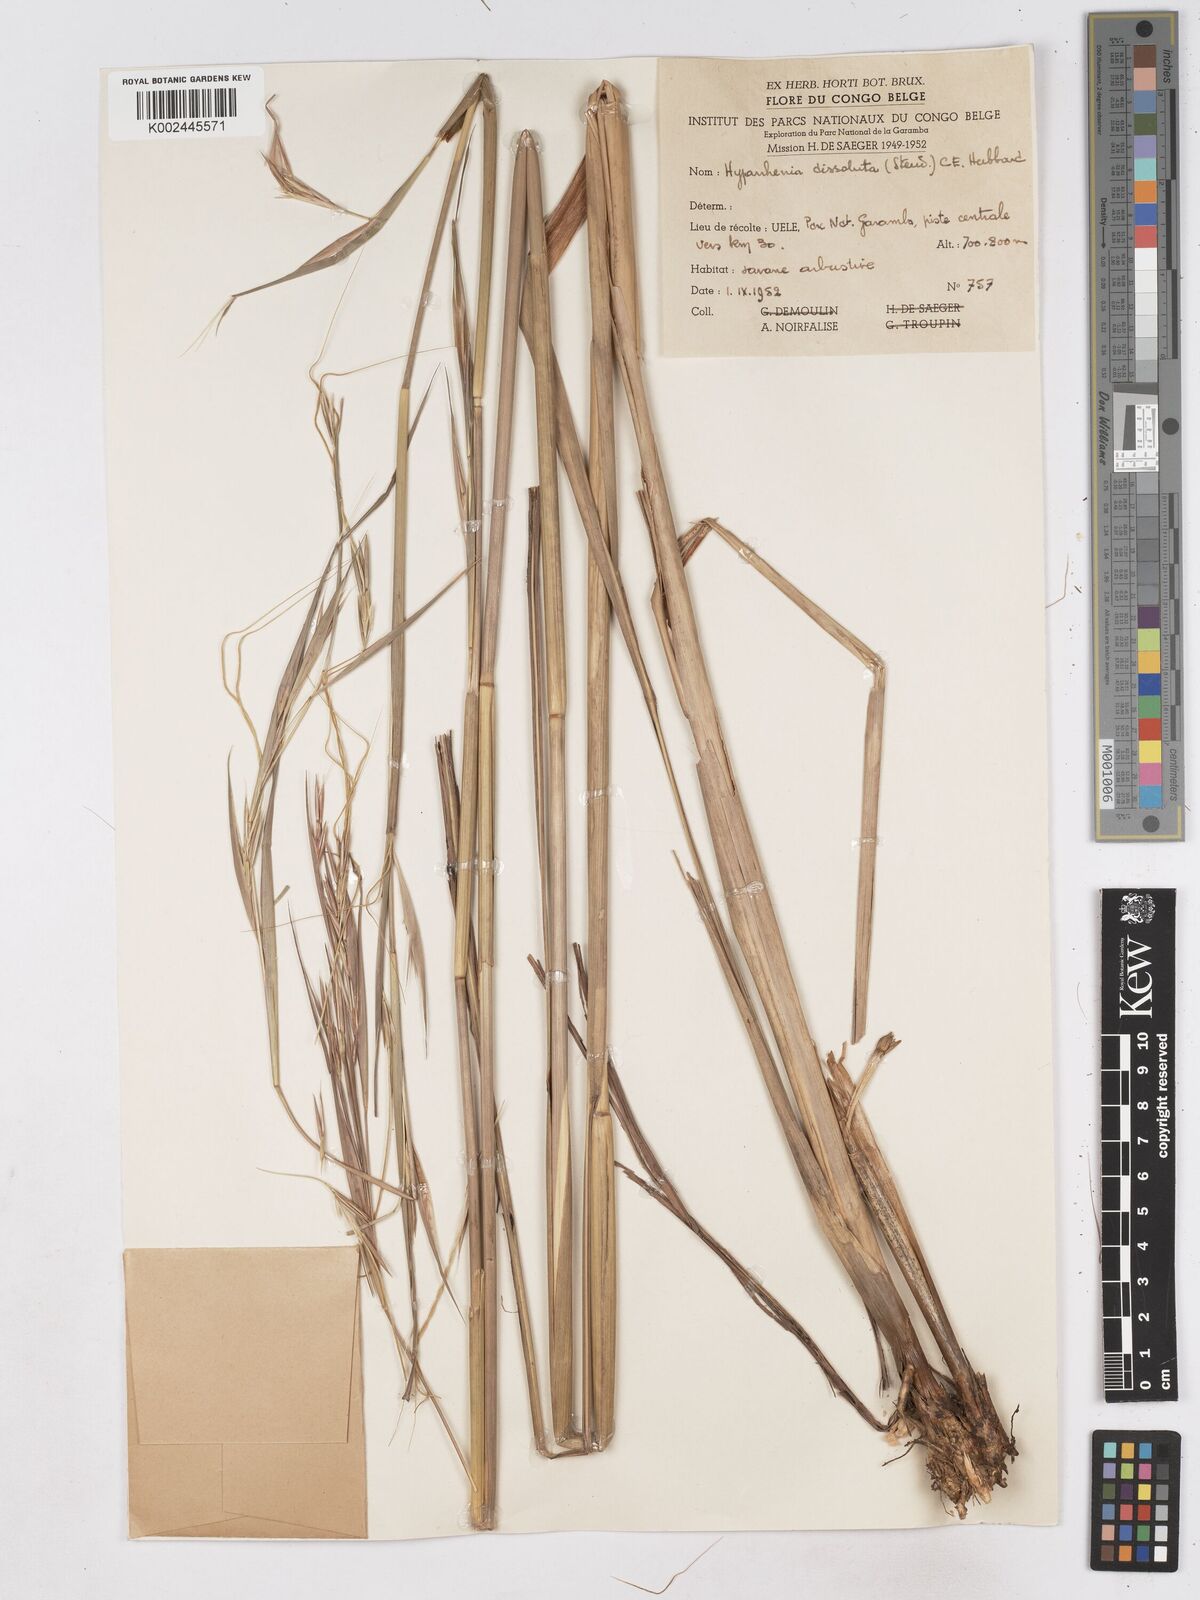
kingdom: Plantae
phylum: Tracheophyta
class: Liliopsida
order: Poales
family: Poaceae
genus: Hyperthelia
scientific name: Hyperthelia dissoluta
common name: Yellow thatching grass
